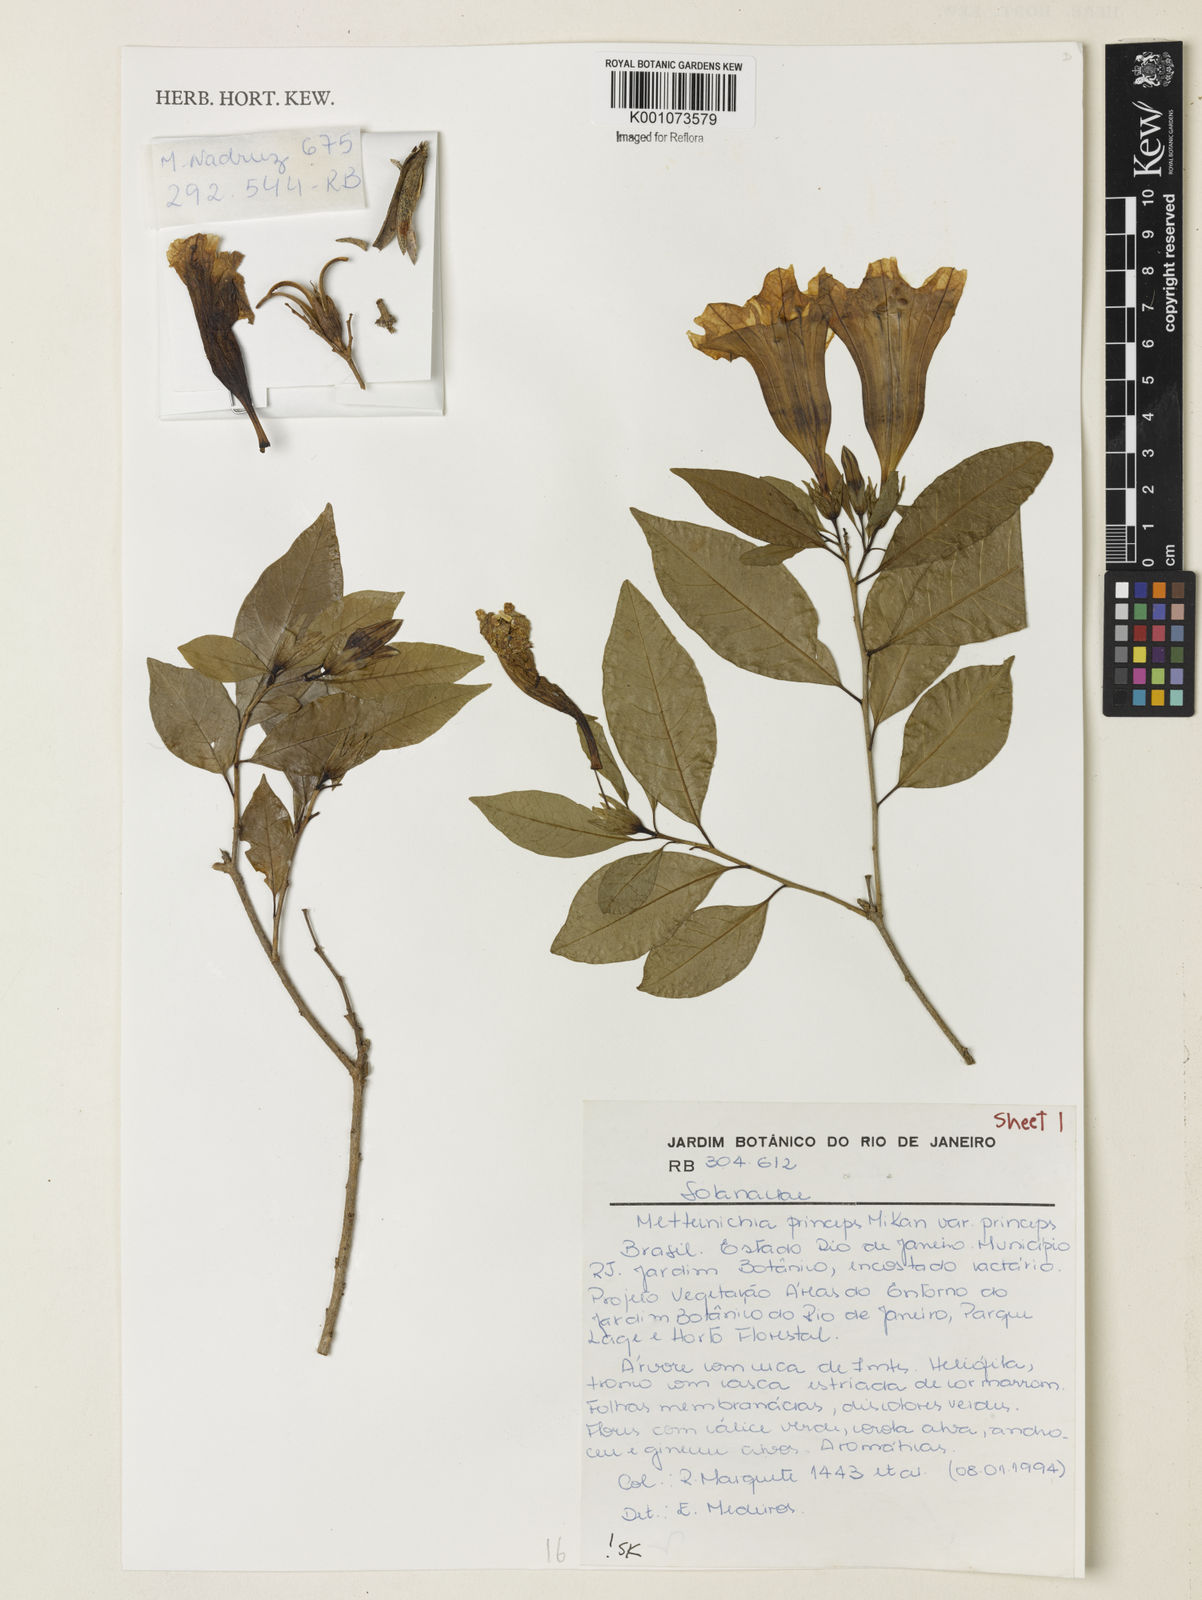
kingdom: Plantae
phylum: Tracheophyta
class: Magnoliopsida
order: Solanales
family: Solanaceae
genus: Metternichia
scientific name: Metternichia
